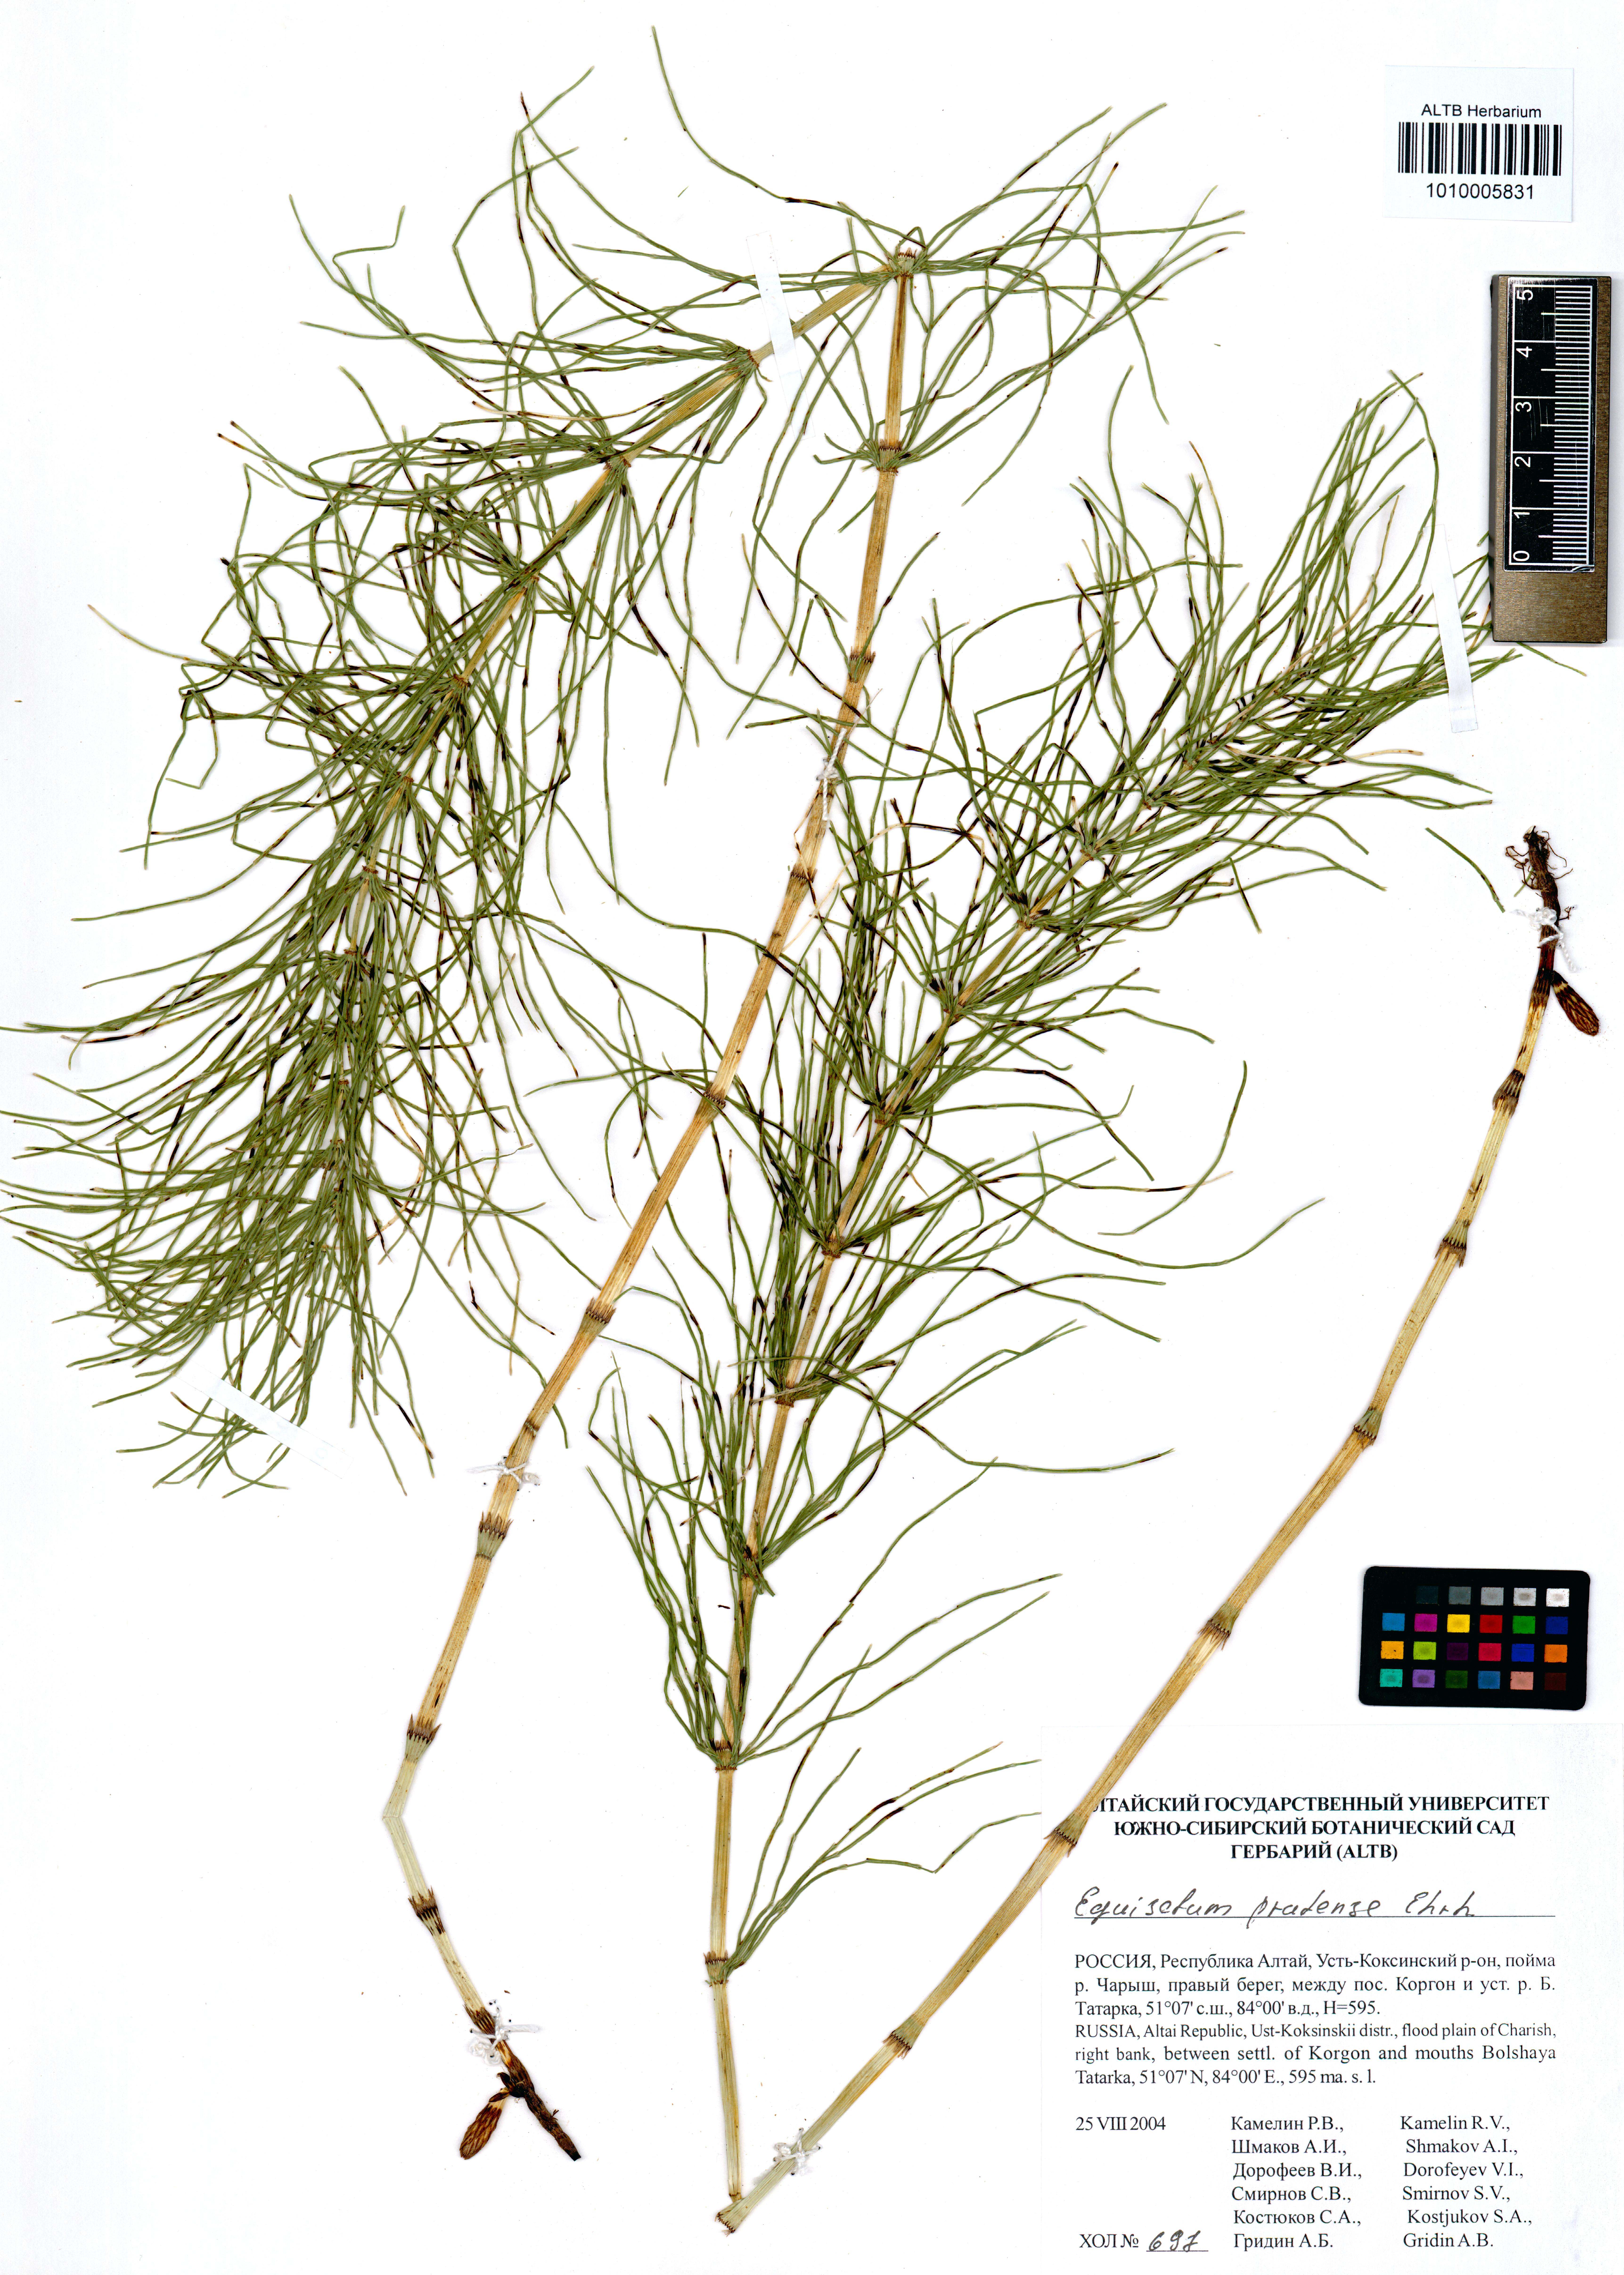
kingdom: Plantae
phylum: Tracheophyta
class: Polypodiopsida
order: Equisetales
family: Equisetaceae
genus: Equisetum
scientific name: Equisetum pratense
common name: Meadow horsetail
